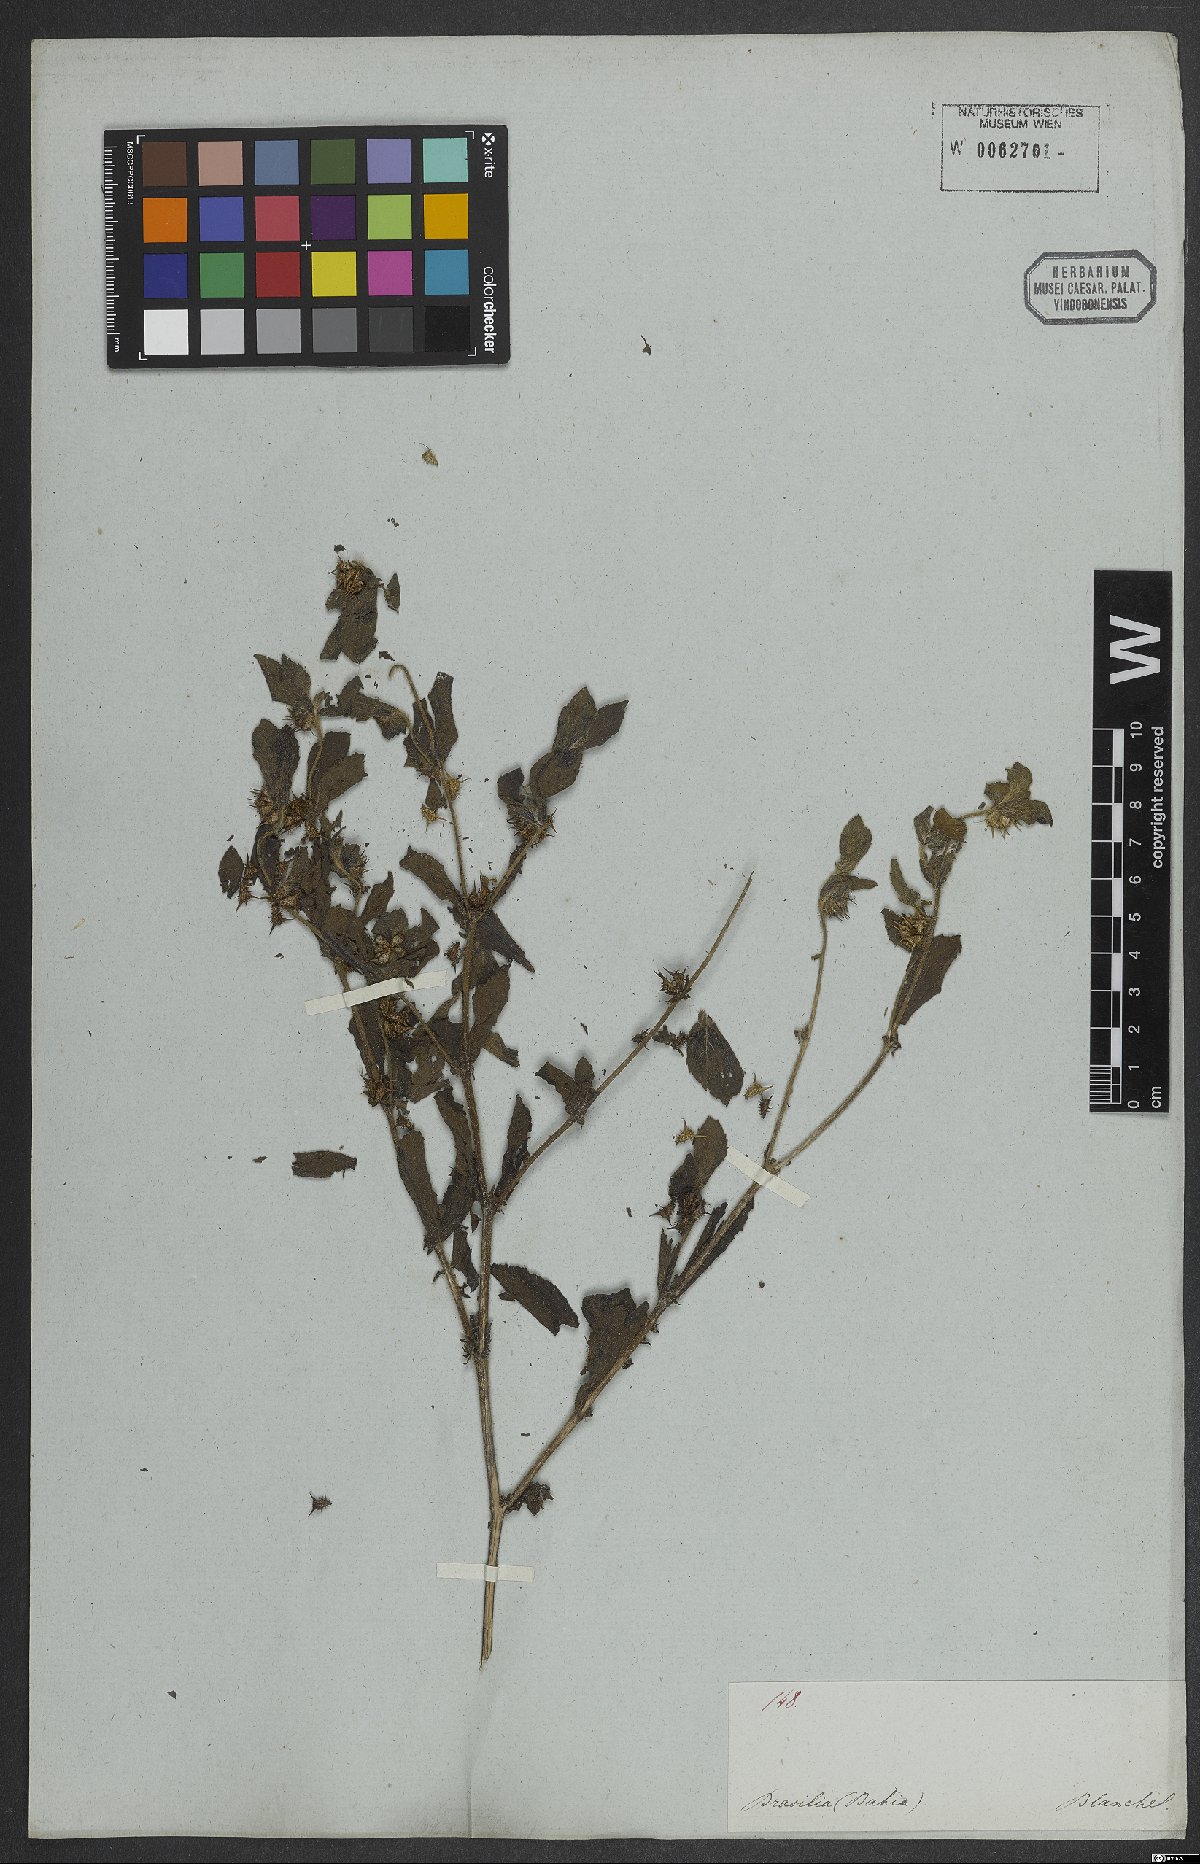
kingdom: Plantae
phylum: Tracheophyta
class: Magnoliopsida
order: Asterales
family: Asteraceae
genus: Acanthospermum
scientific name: Acanthospermum hispidum
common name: Hispid starbur
